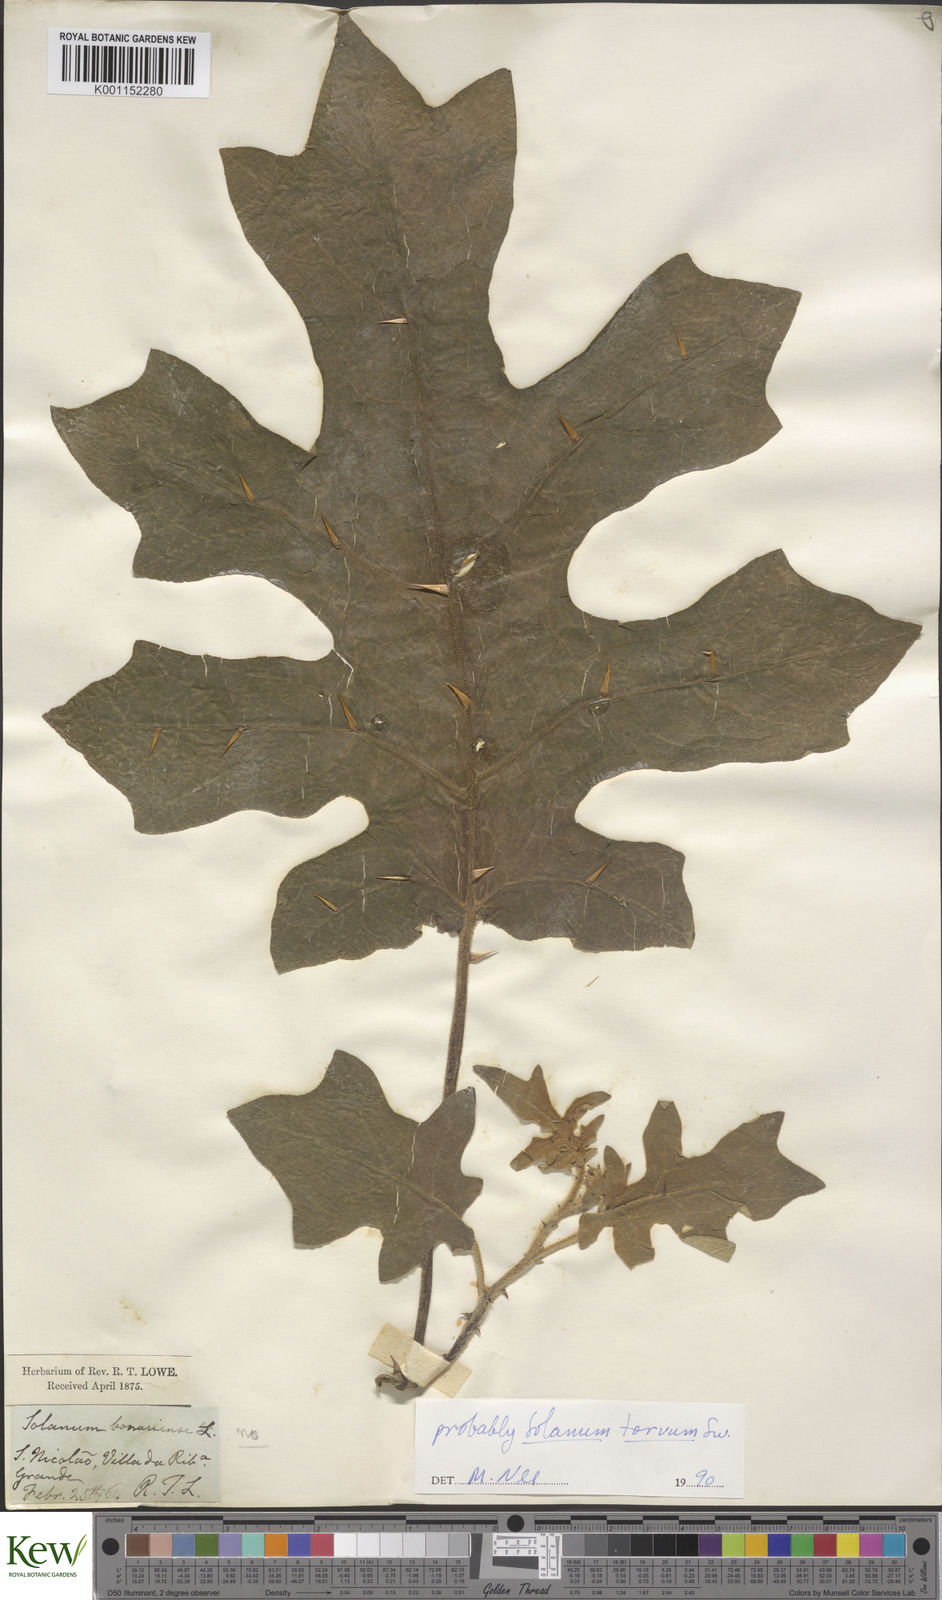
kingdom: Plantae
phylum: Tracheophyta
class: Magnoliopsida
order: Solanales
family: Solanaceae
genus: Solanum
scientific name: Solanum bonariense
